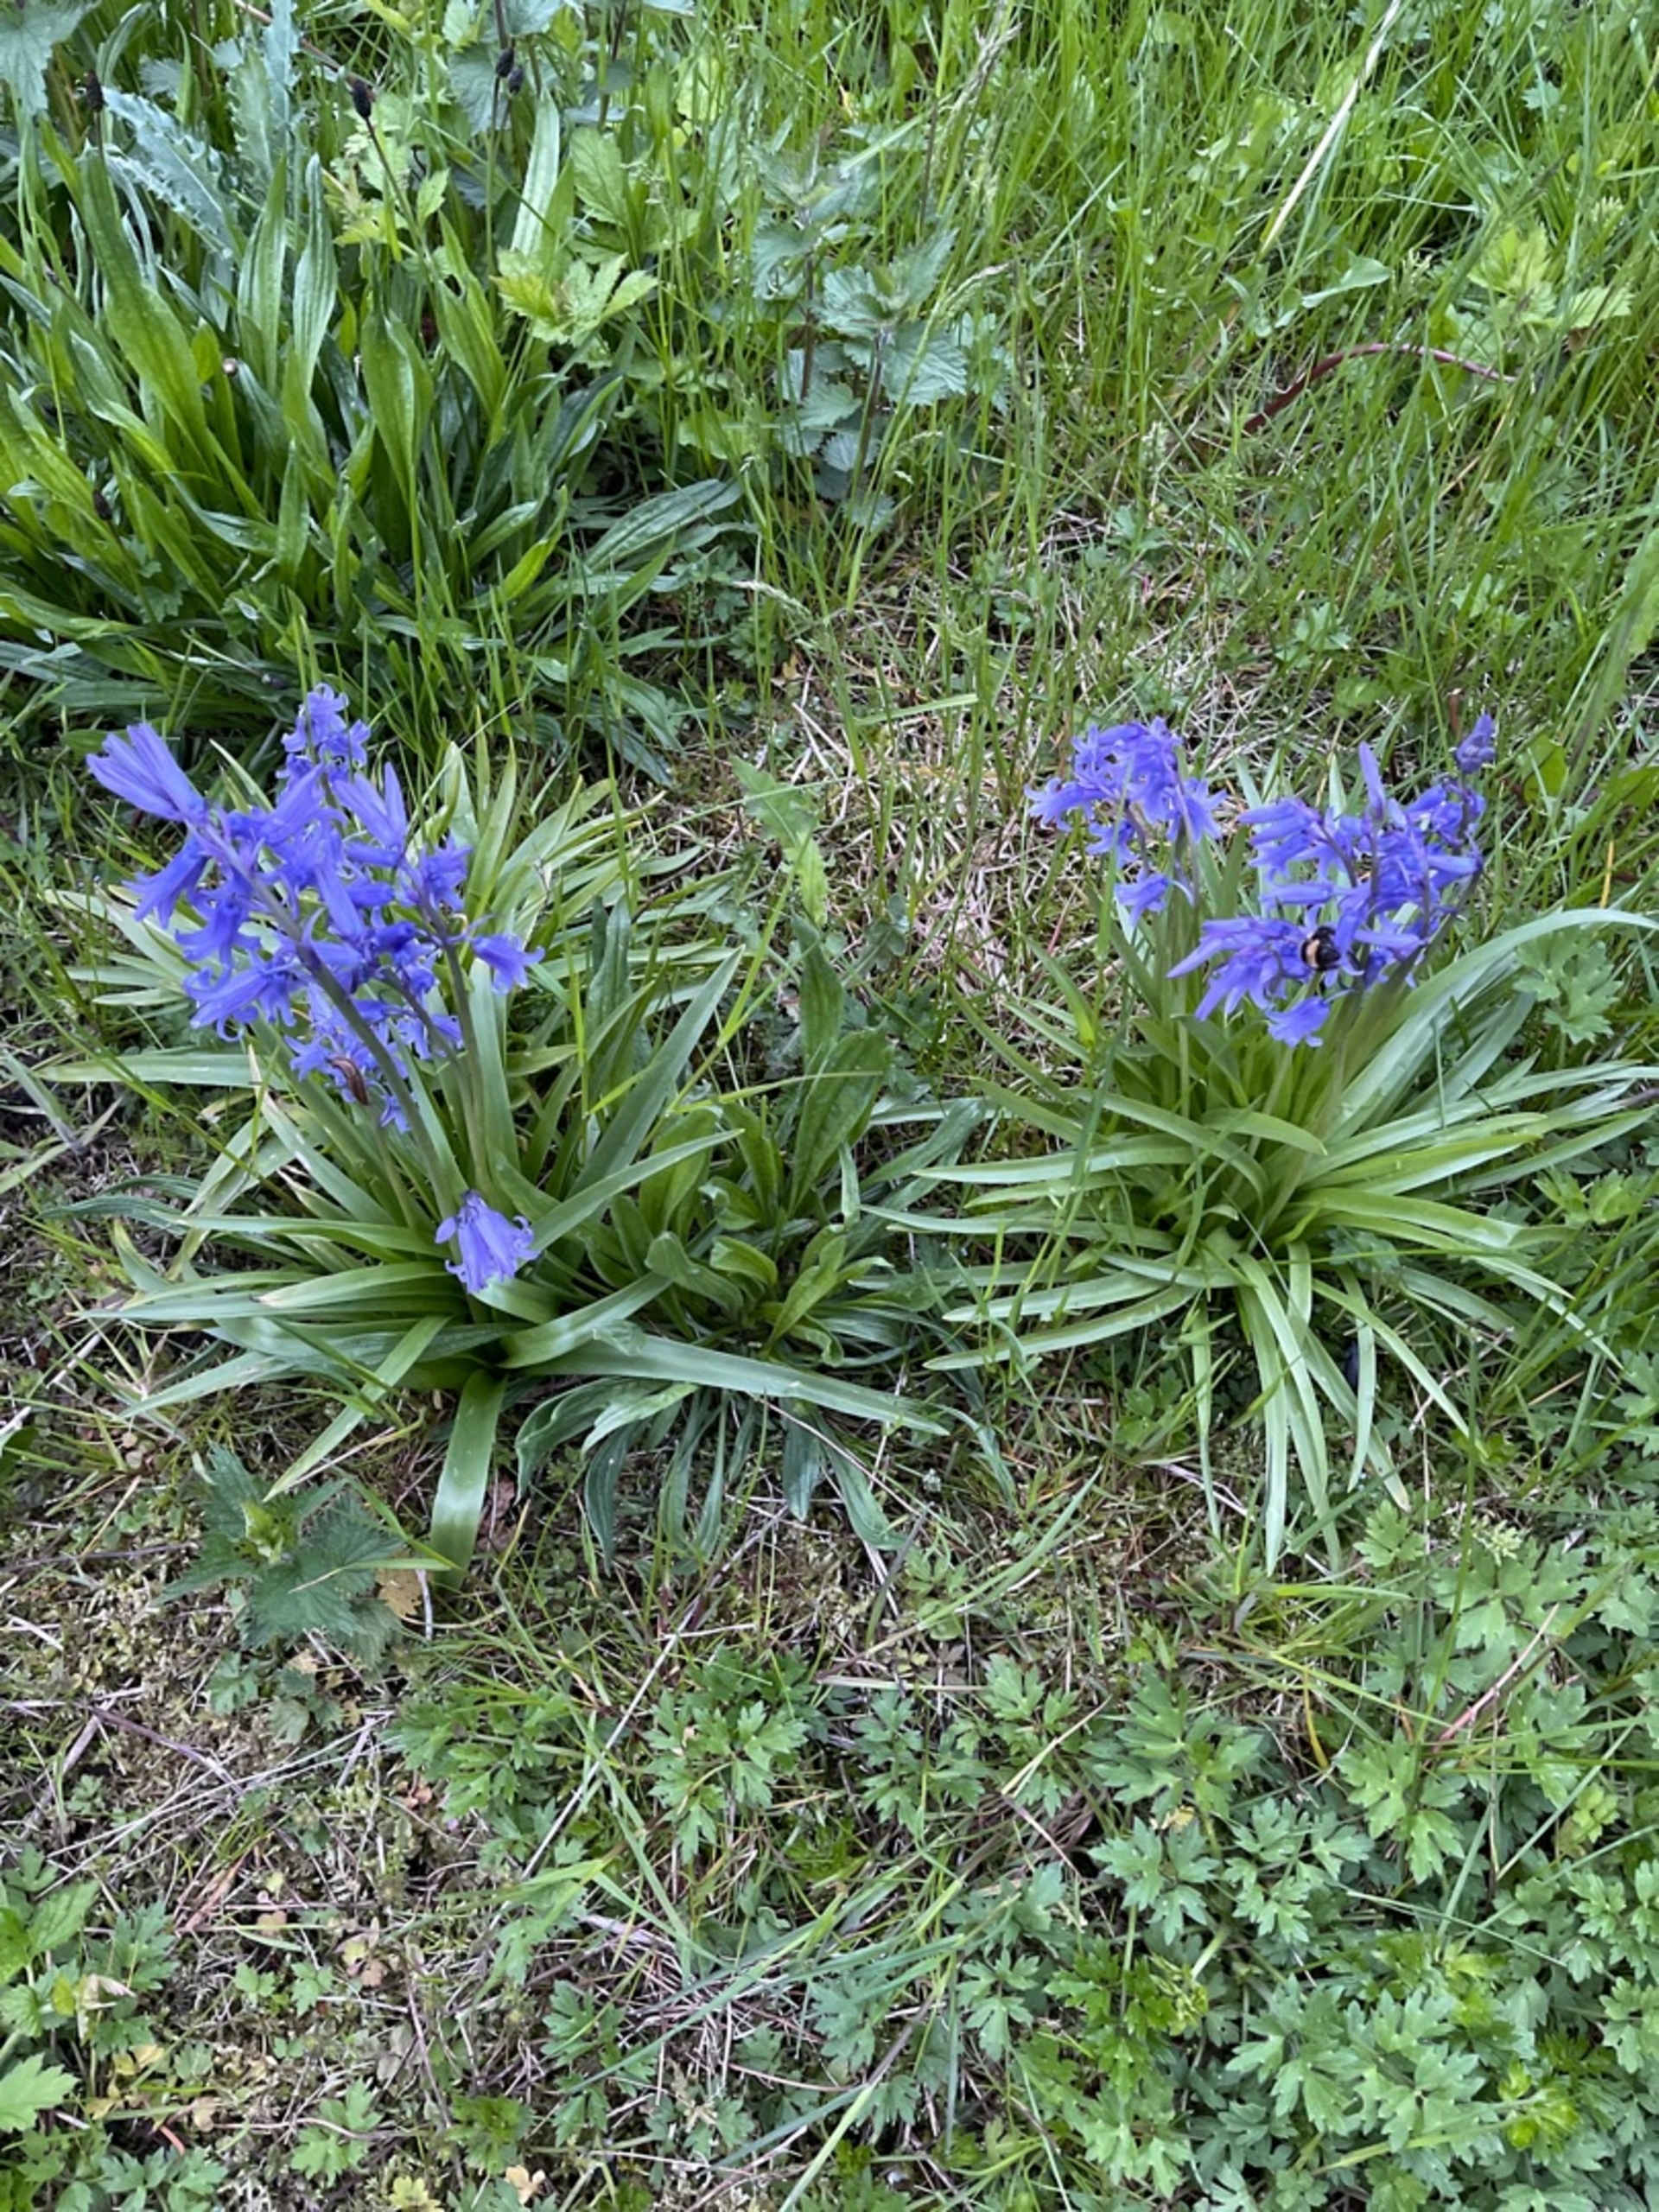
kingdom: Plantae
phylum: Tracheophyta
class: Liliopsida
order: Asparagales
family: Asparagaceae
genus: Hyacinthoides
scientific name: Hyacinthoides massartiana
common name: Hybrid-klokkeskilla
